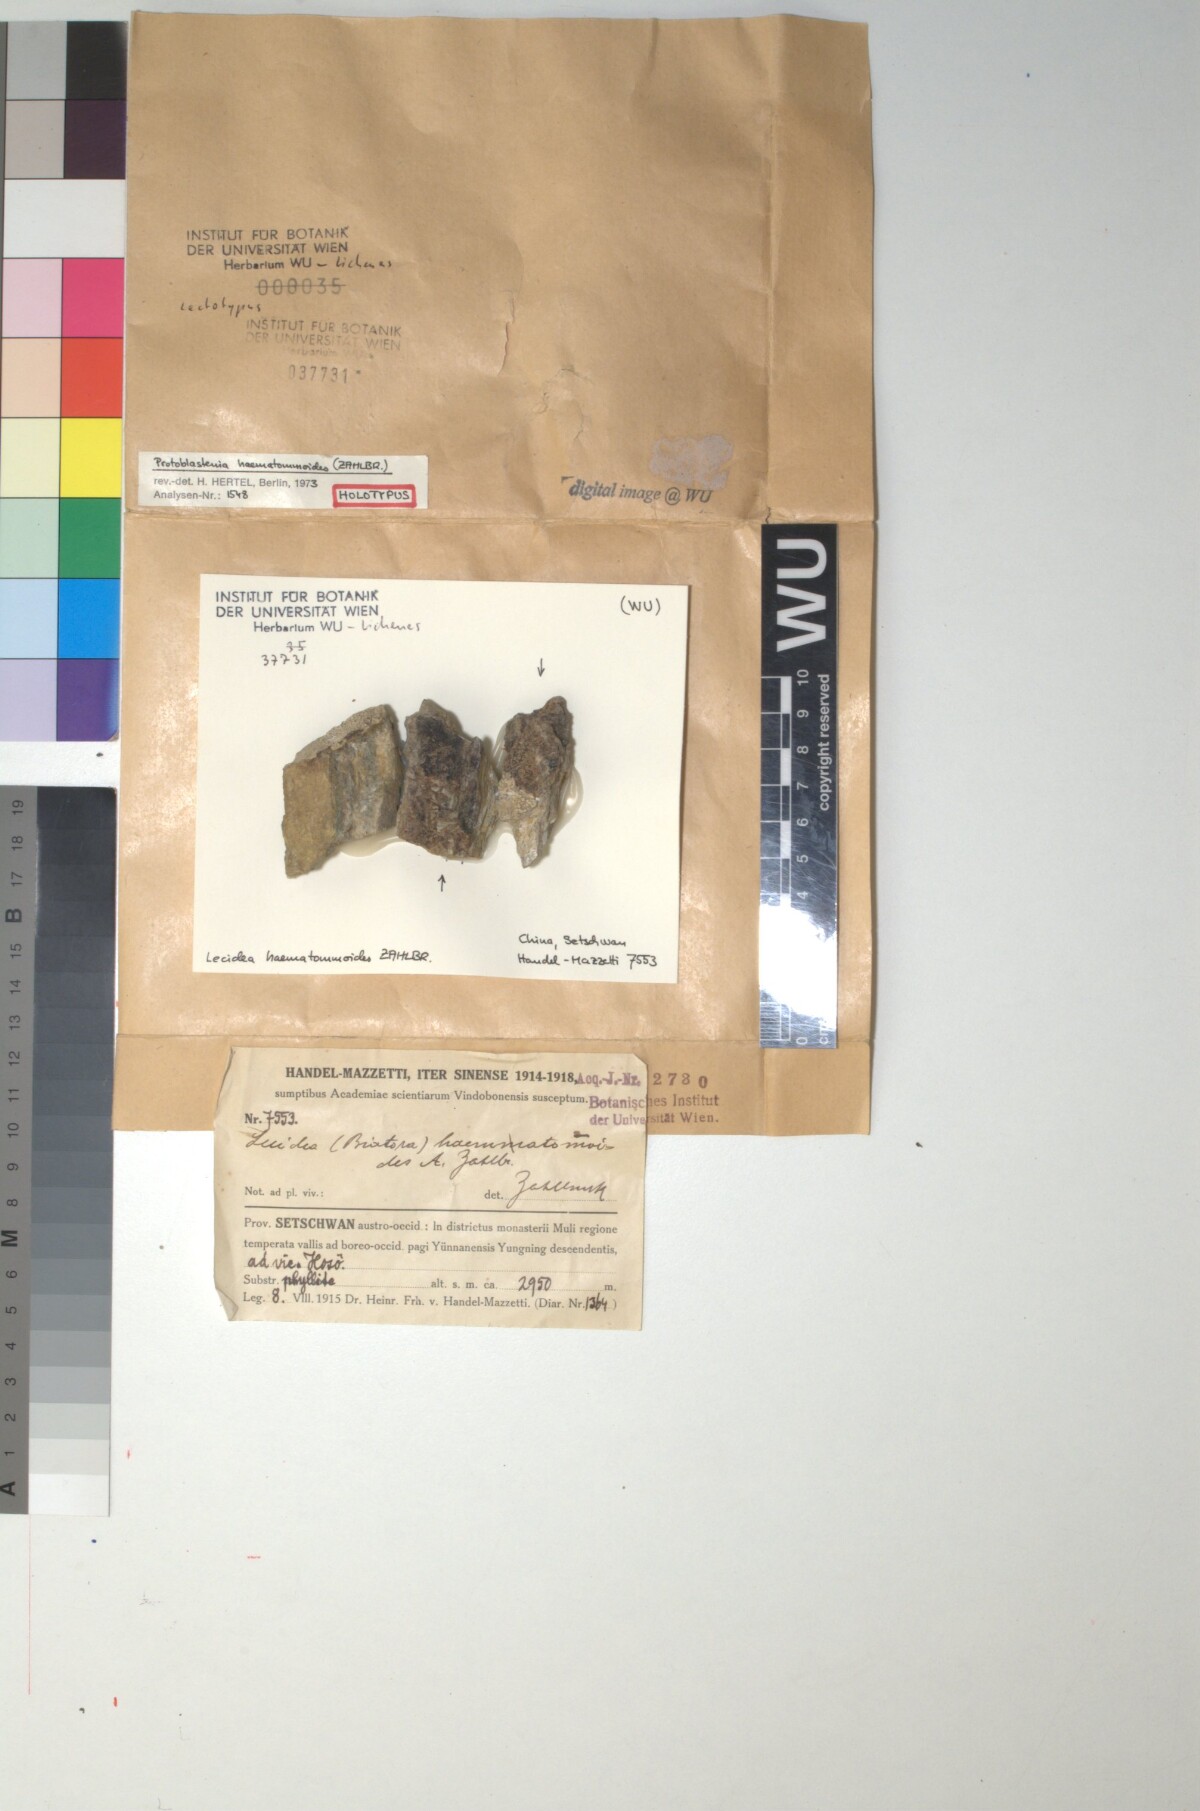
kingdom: Fungi
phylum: Ascomycota
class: Lecanoromycetes
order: Lecanorales
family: Ramboldiaceae
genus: Ramboldia
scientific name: Ramboldia griseococcinea
